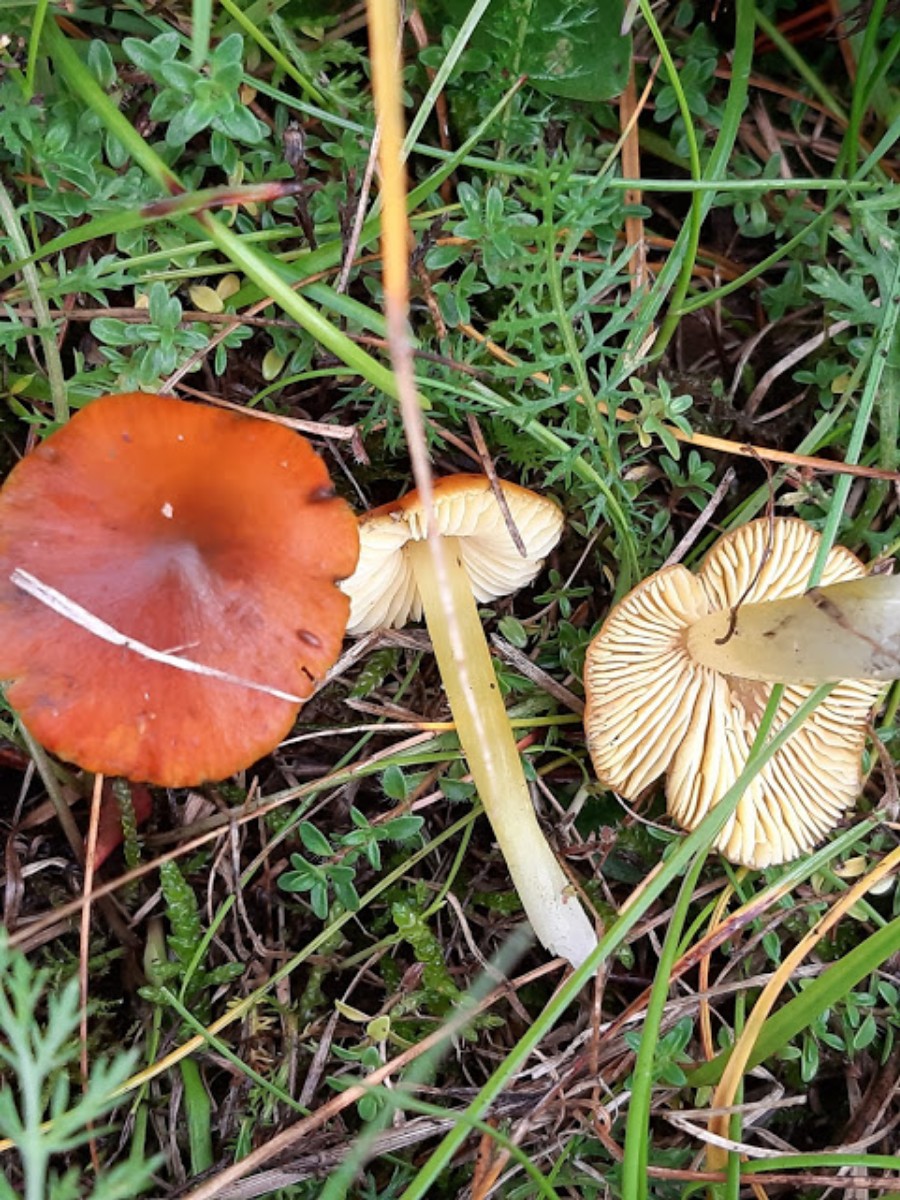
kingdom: Fungi
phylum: Basidiomycota
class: Agaricomycetes
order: Agaricales
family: Hygrophoraceae
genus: Hygrocybe
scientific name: Hygrocybe conica
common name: kegle-vokshat
